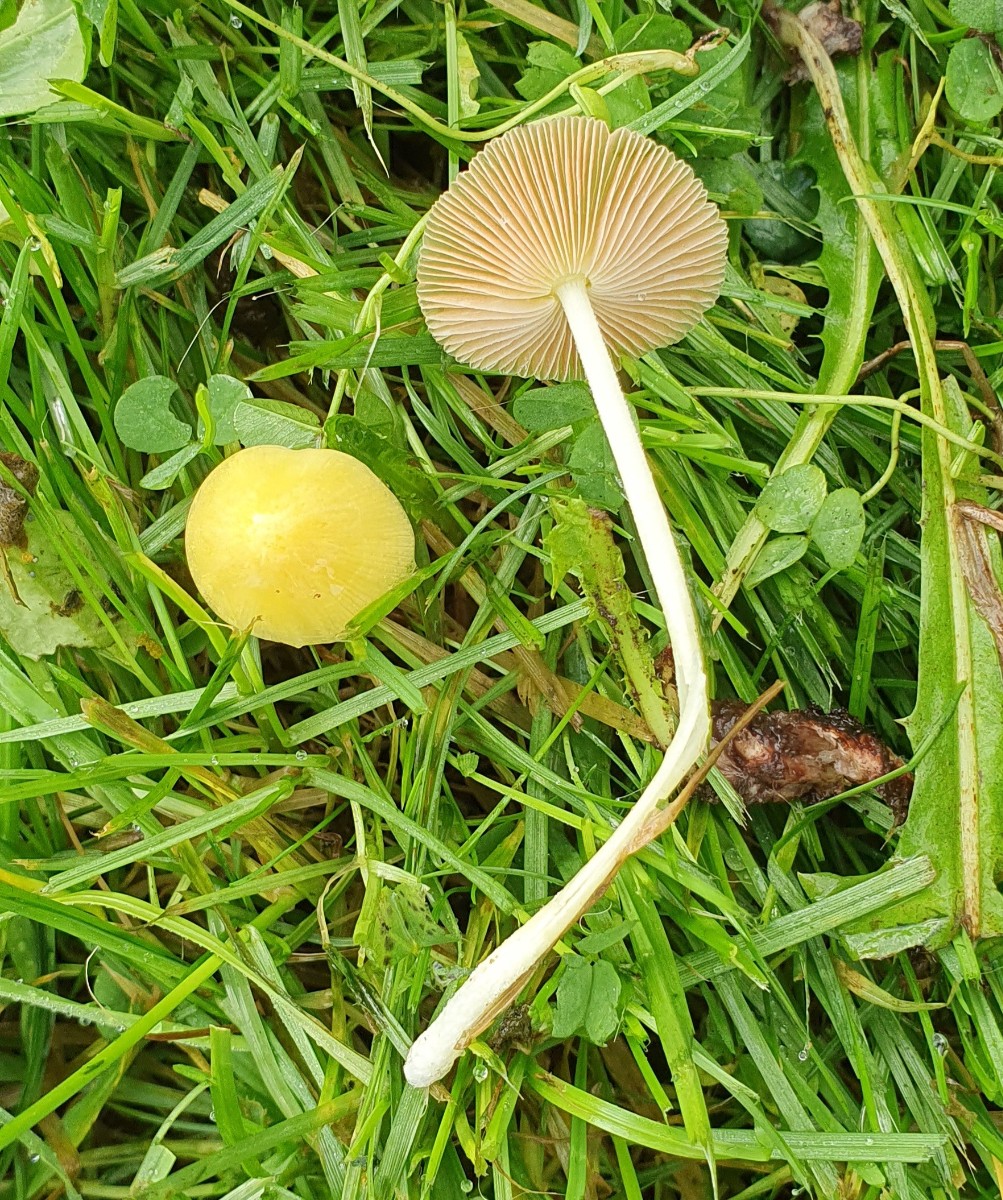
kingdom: Fungi
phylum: Basidiomycota
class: Agaricomycetes
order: Agaricales
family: Bolbitiaceae
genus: Bolbitius
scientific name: Bolbitius titubans
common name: almindelig gulhat
